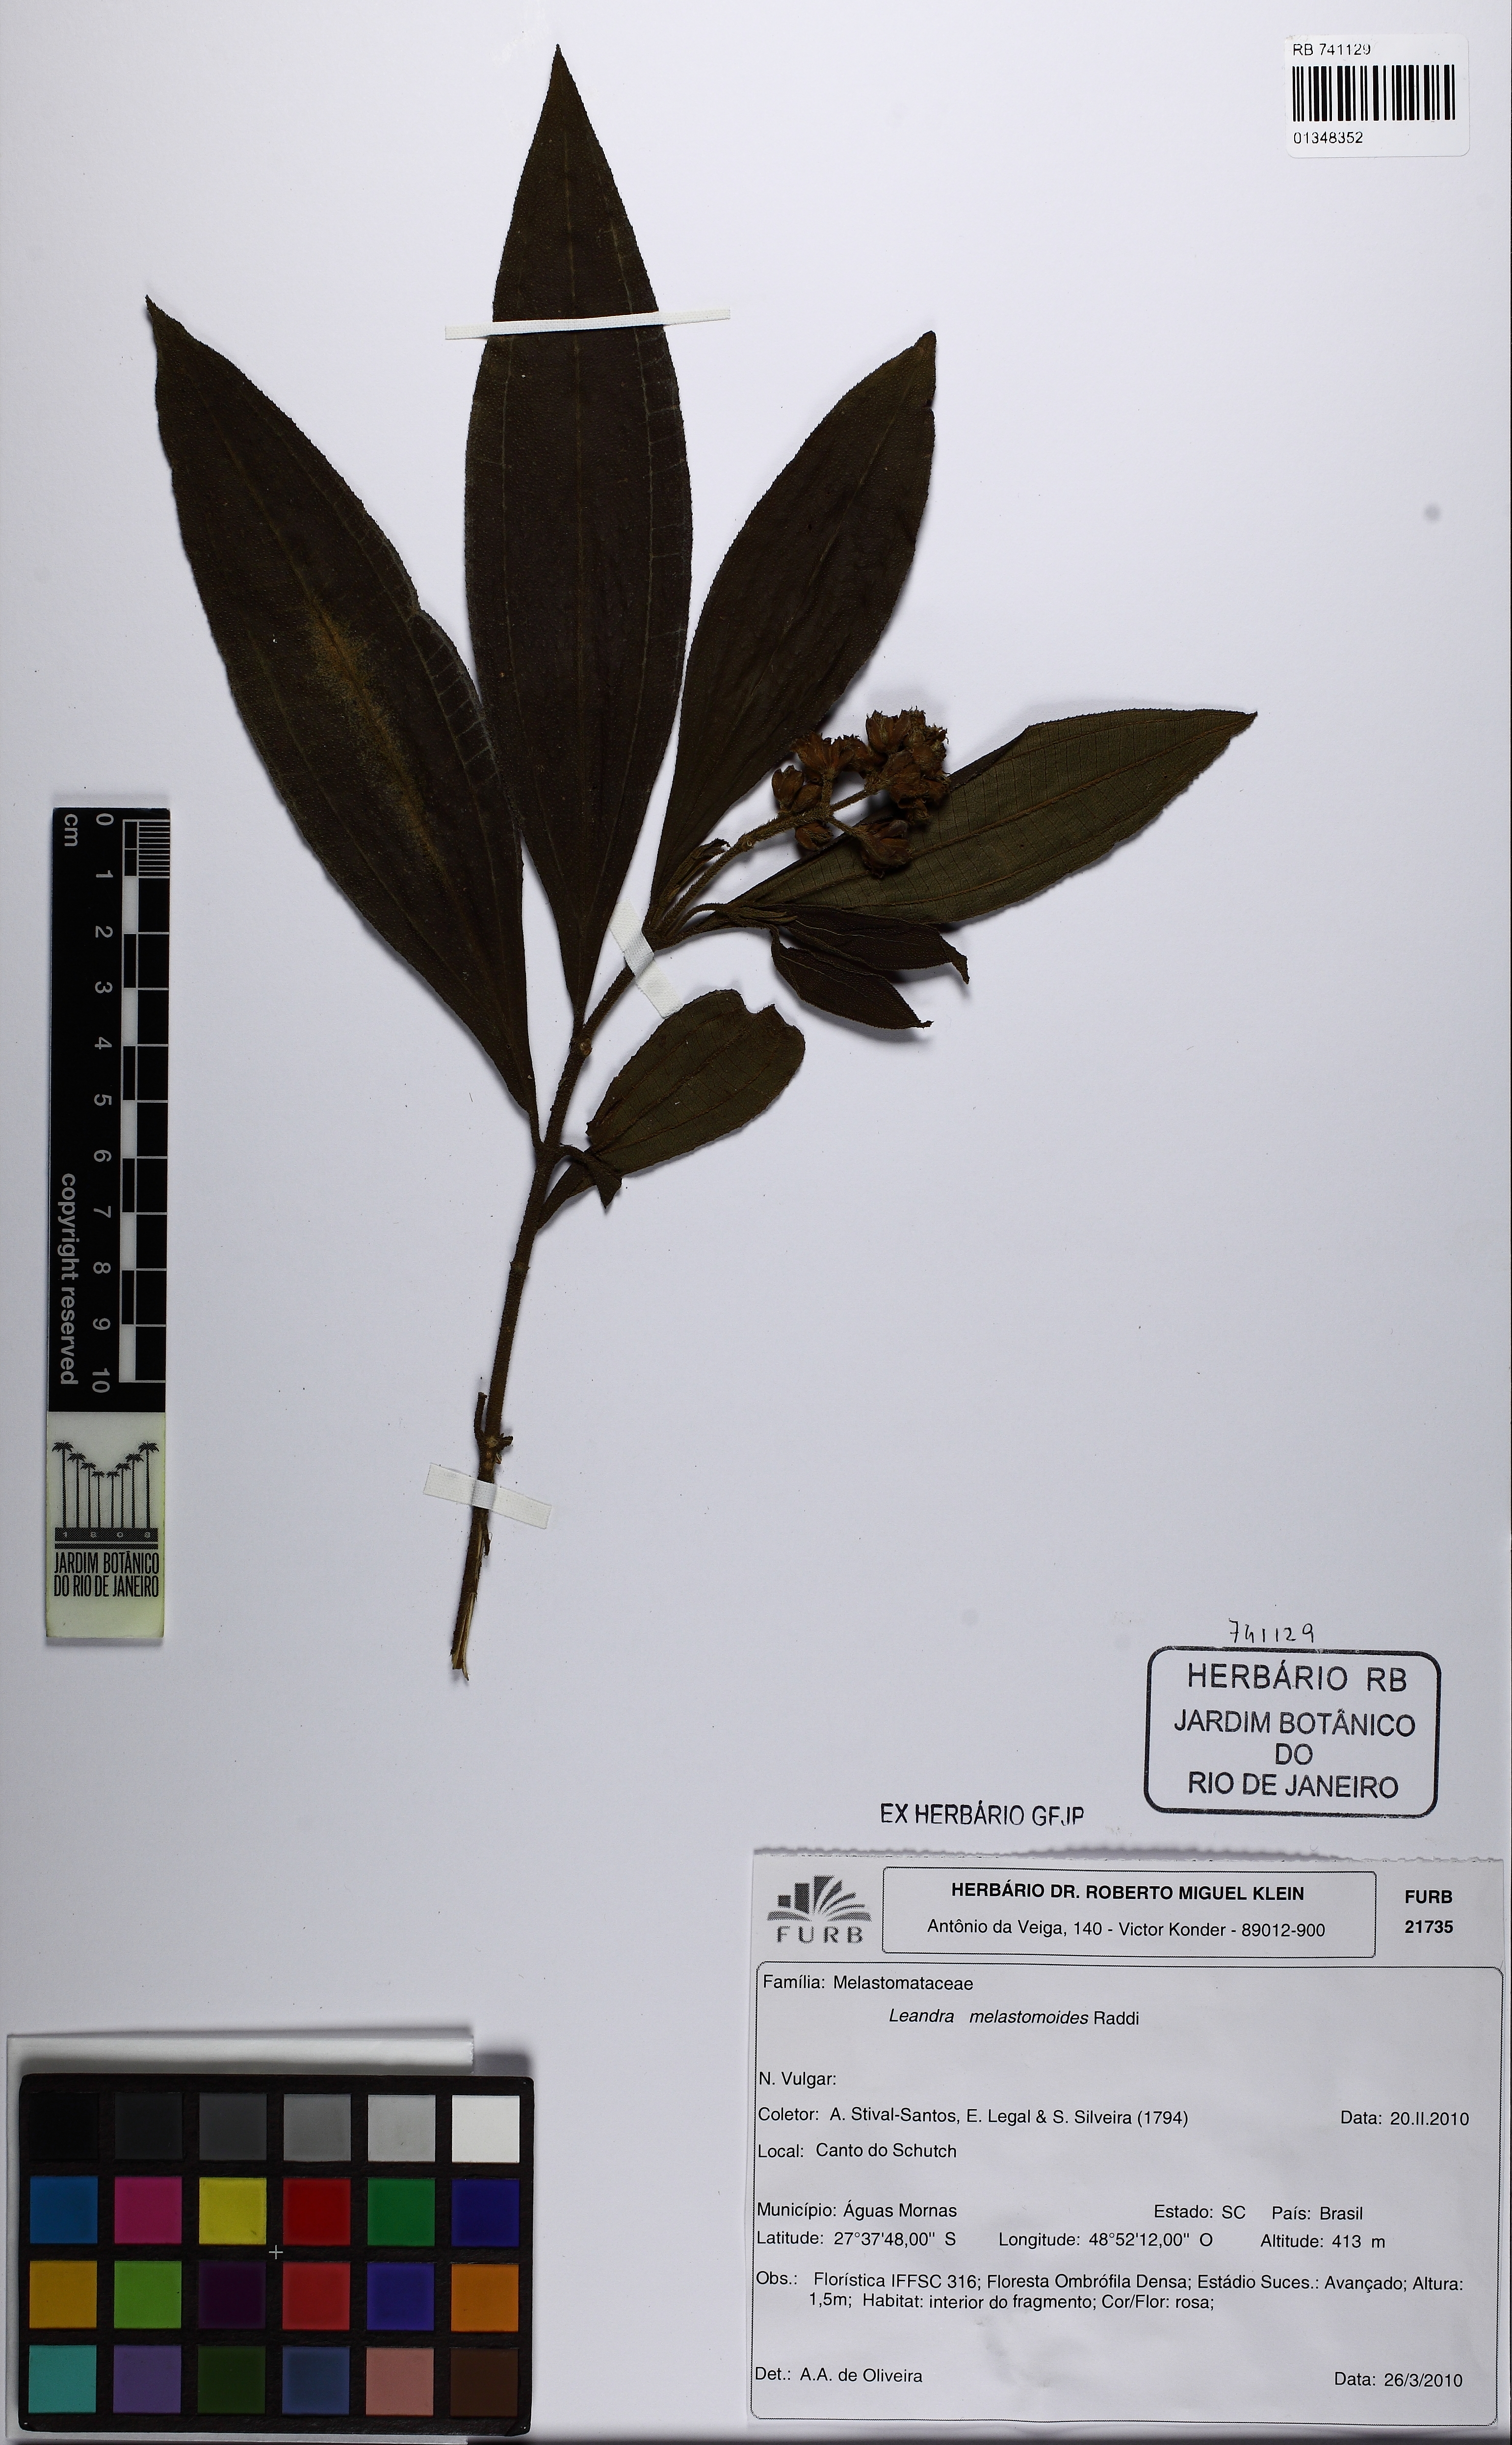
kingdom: Plantae
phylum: Tracheophyta
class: Magnoliopsida
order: Myrtales
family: Melastomataceae
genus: Miconia
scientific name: Miconia melastomoides
